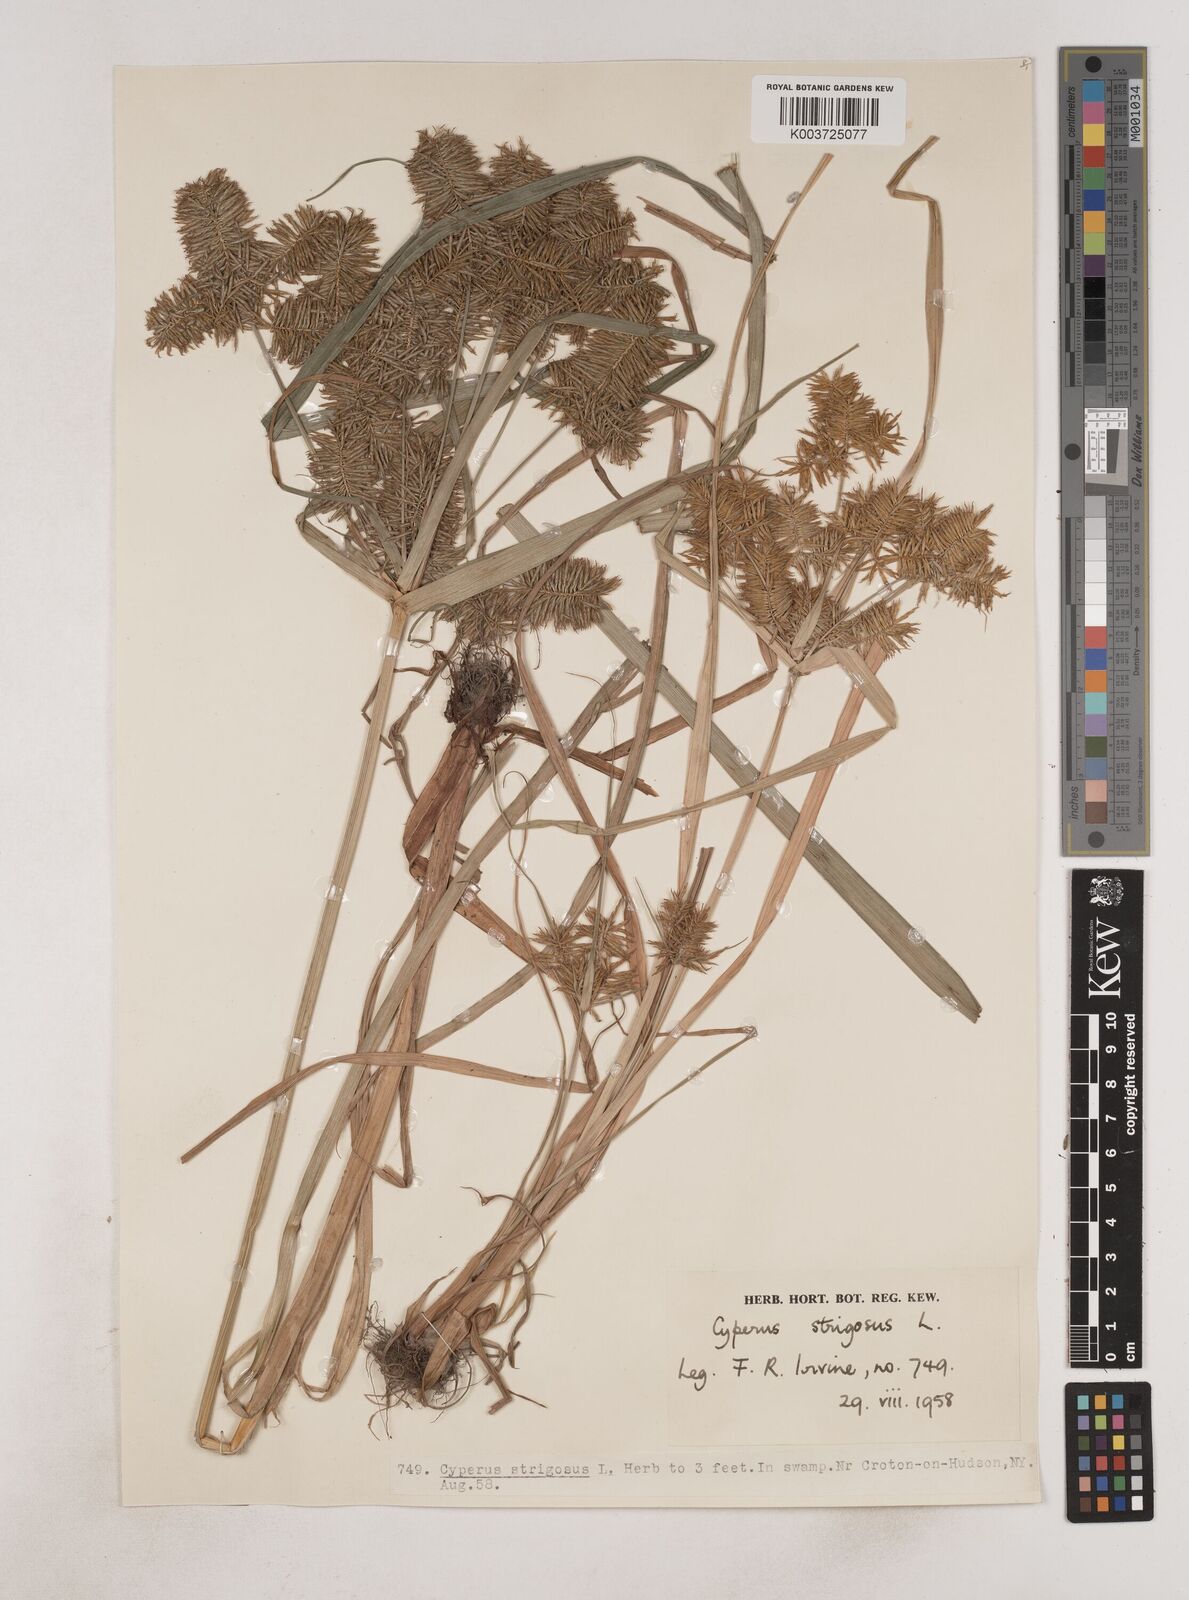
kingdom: Plantae
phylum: Tracheophyta
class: Liliopsida
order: Poales
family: Cyperaceae
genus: Cyperus
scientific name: Cyperus strigosus
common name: False nutsedge
